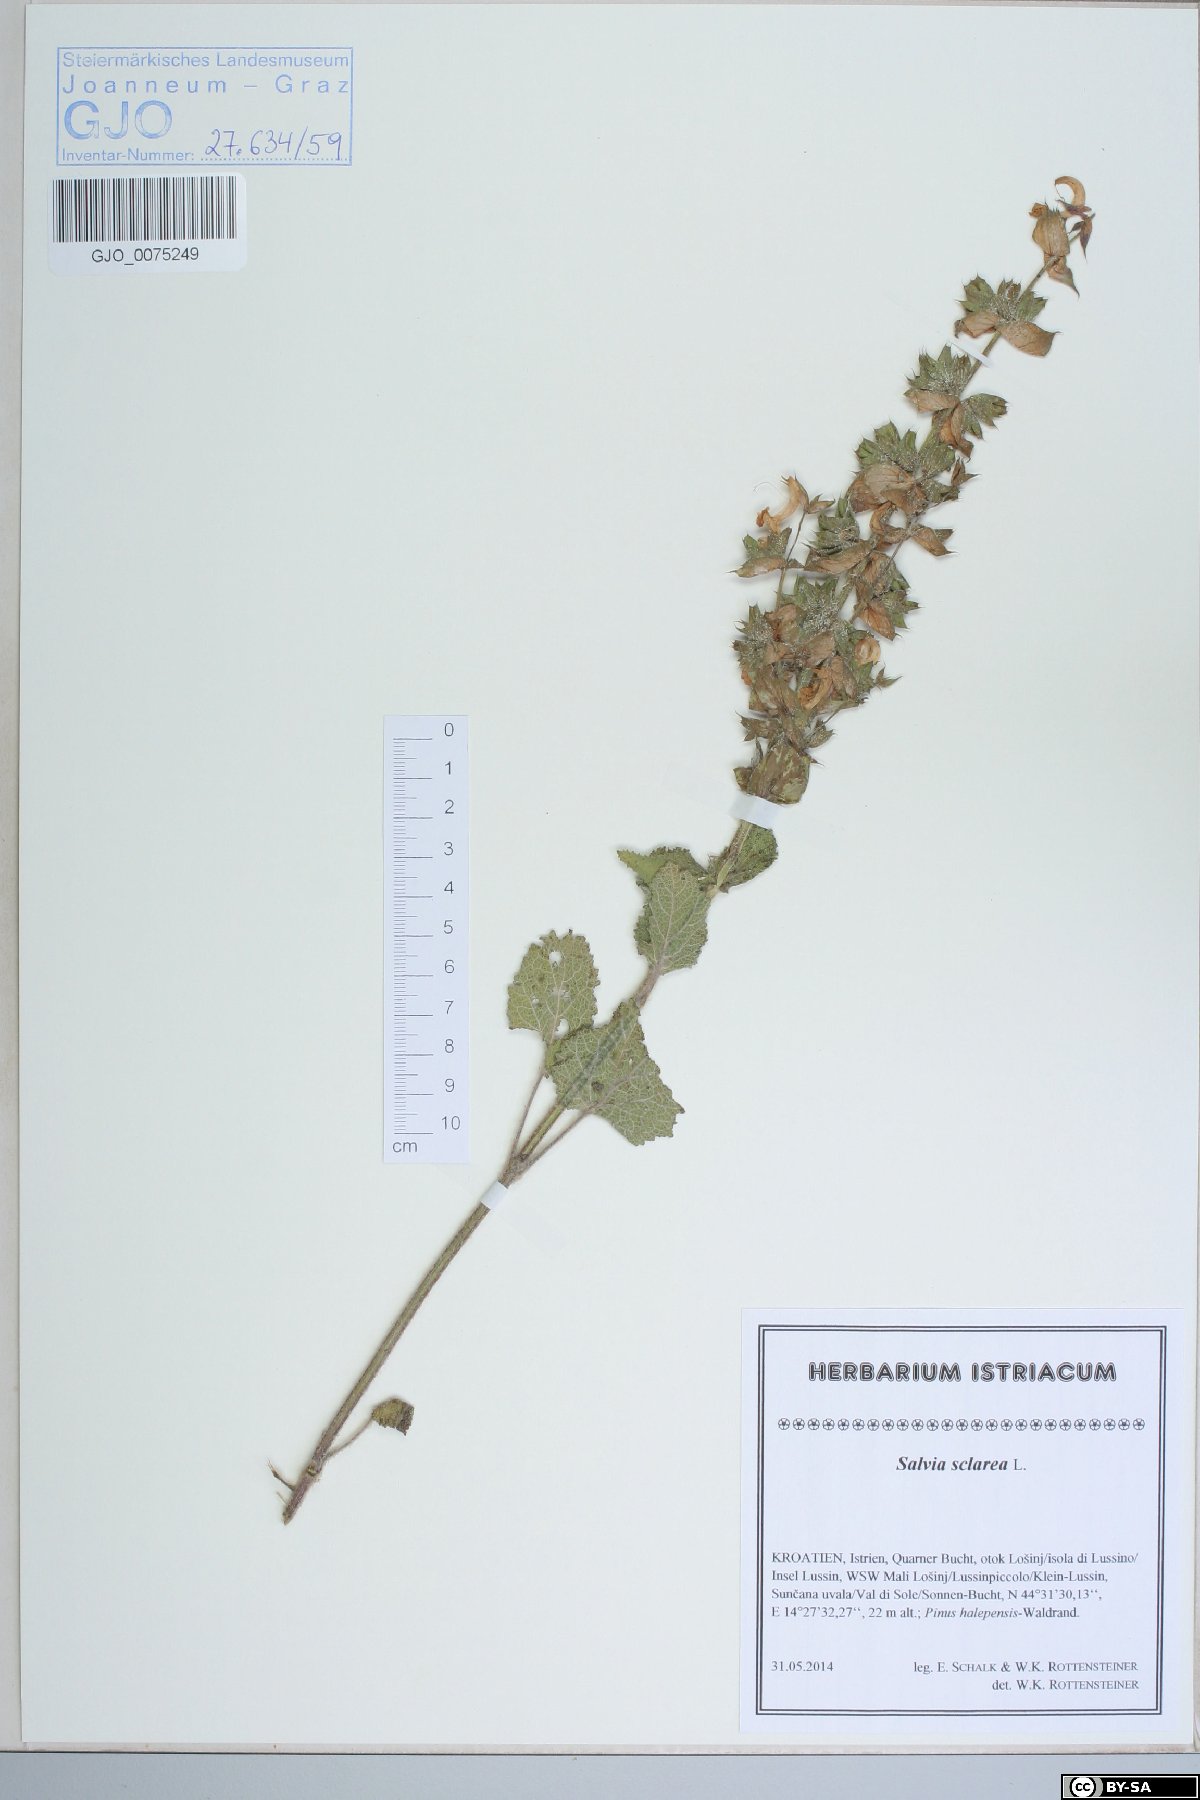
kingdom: Plantae
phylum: Tracheophyta
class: Magnoliopsida
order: Lamiales
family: Lamiaceae
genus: Salvia
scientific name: Salvia sclarea
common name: Clary
